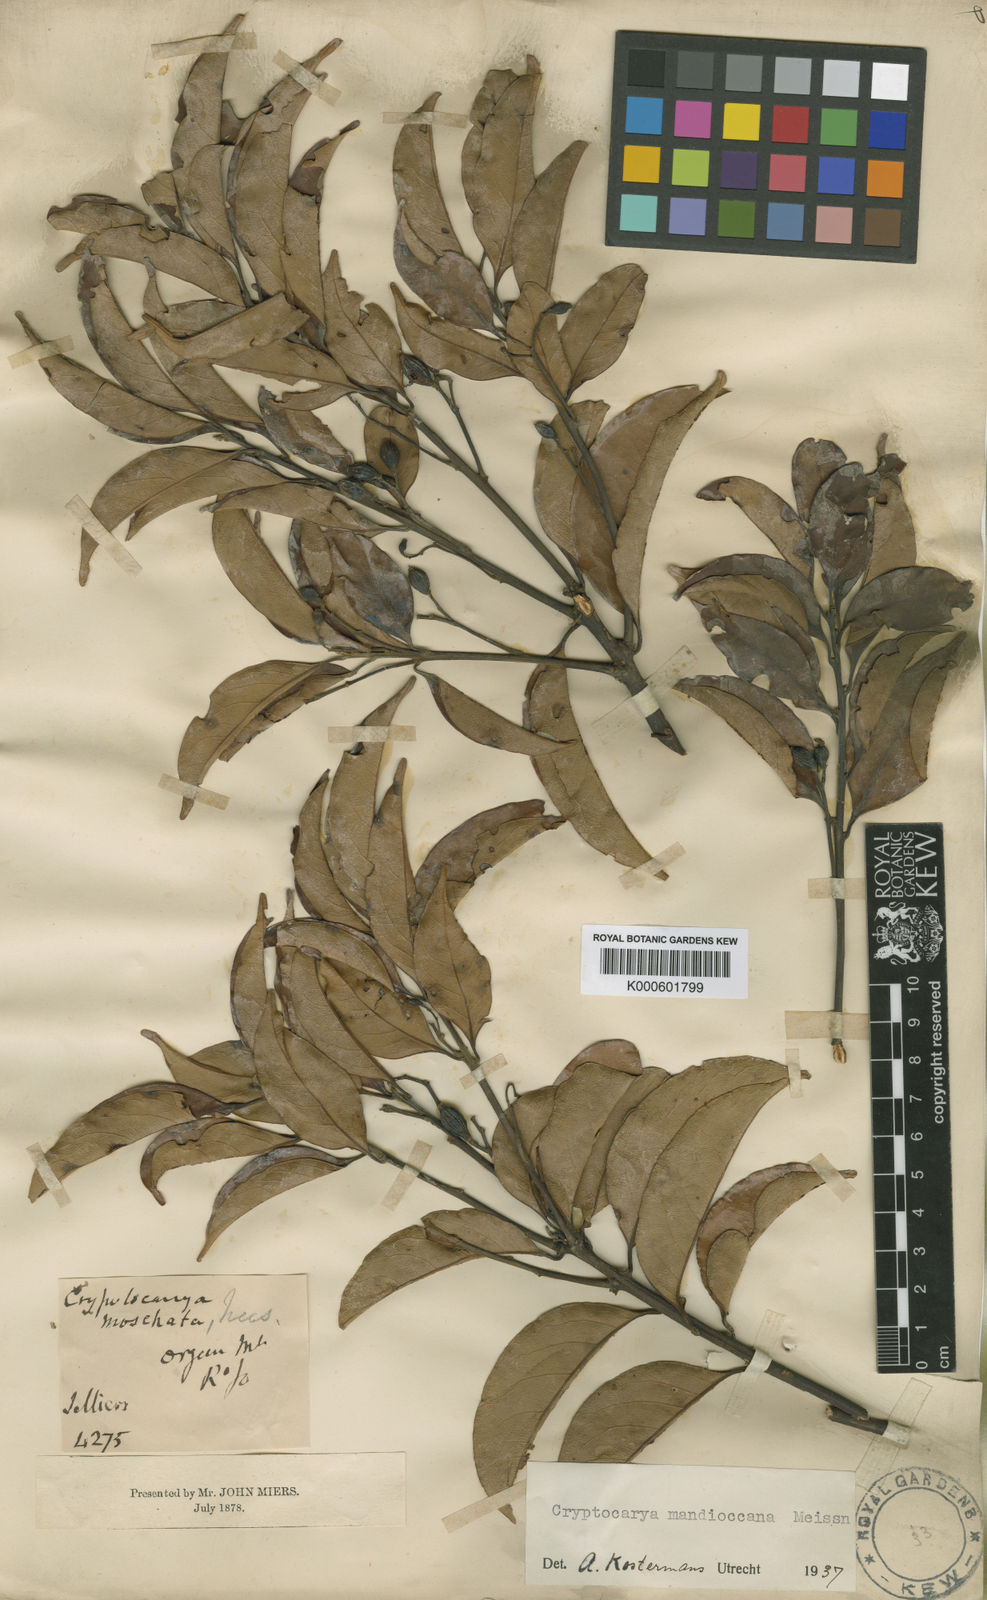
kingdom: Plantae
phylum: Tracheophyta
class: Magnoliopsida
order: Laurales
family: Lauraceae
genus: Cryptocarya
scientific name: Cryptocarya mandioccana
